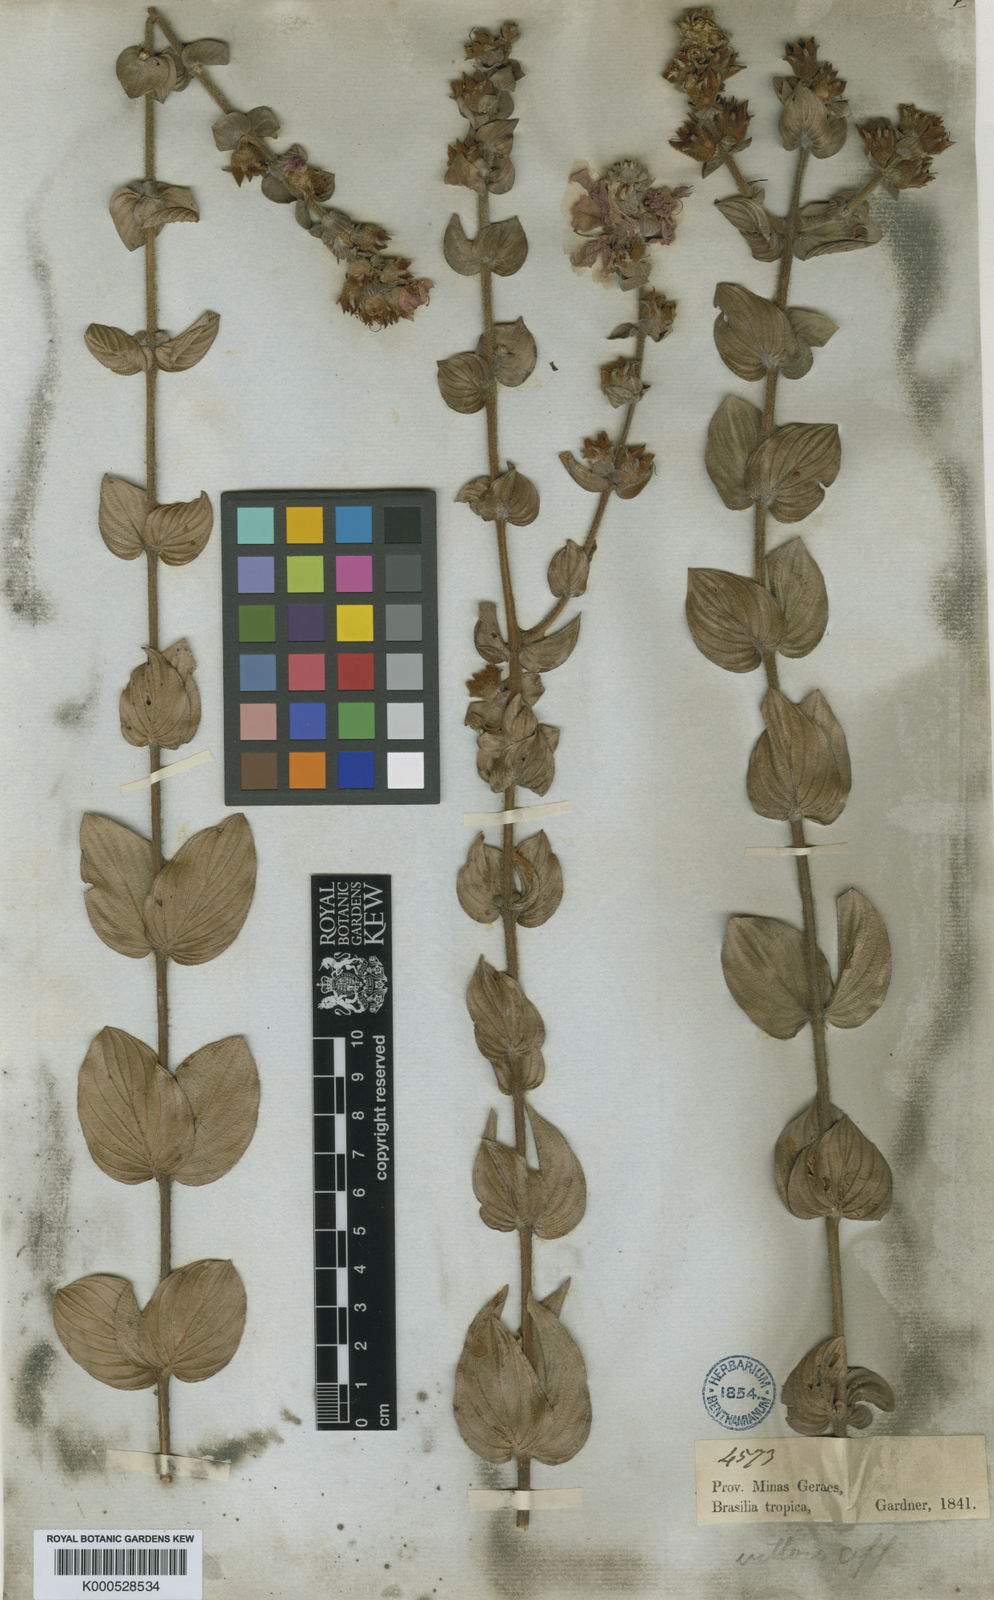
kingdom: Plantae
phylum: Tracheophyta
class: Magnoliopsida
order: Myrtales
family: Lythraceae
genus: Diplusodon
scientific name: Diplusodon sessiliflorus
